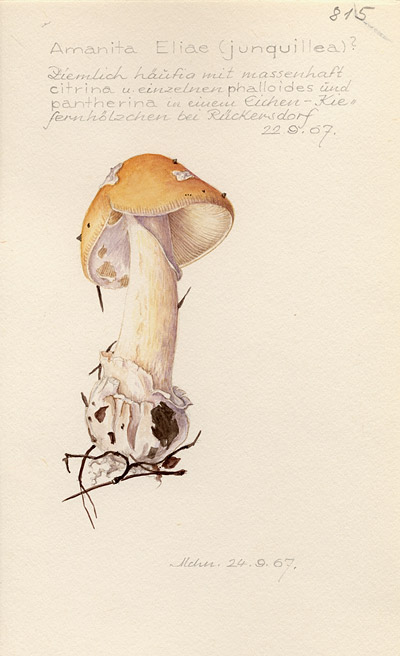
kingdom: Fungi
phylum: Basidiomycota
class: Agaricomycetes
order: Agaricales
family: Amanitaceae
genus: Amanita
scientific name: Amanita eliae
